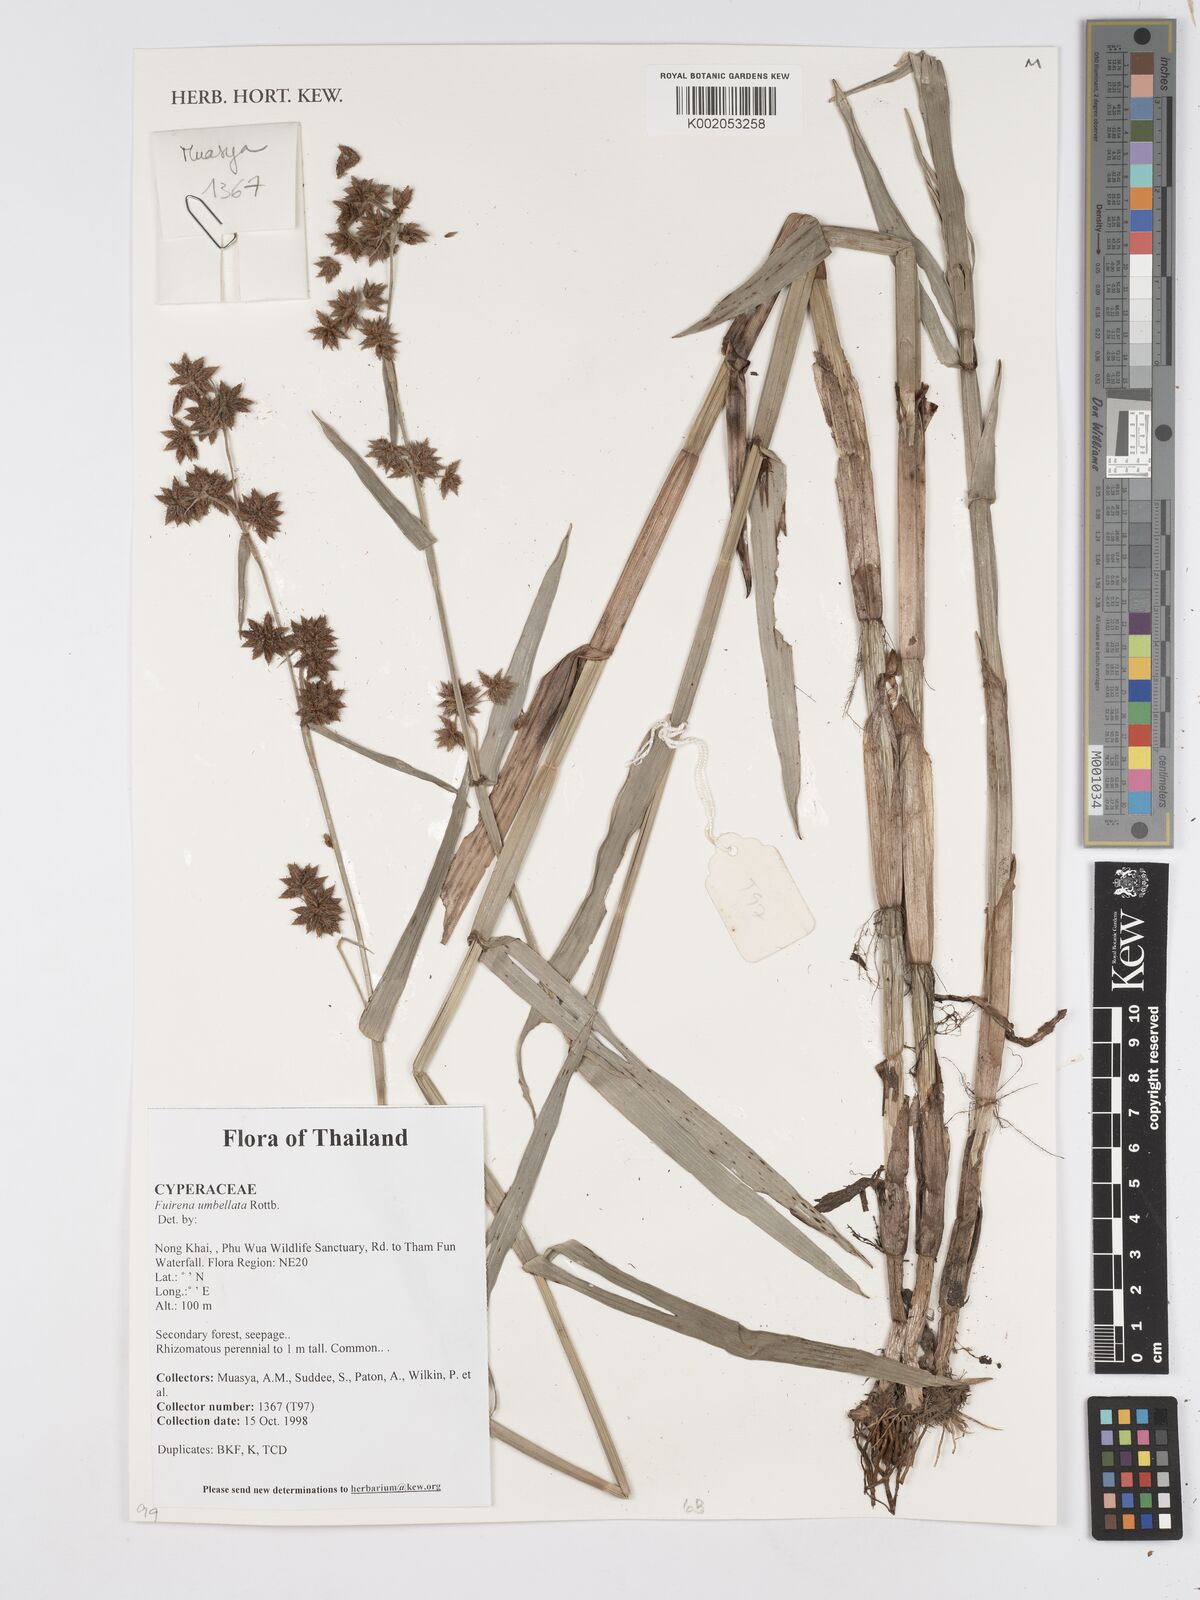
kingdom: Plantae
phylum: Tracheophyta
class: Liliopsida
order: Poales
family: Cyperaceae
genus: Fuirena
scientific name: Fuirena umbellata
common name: Yefen
